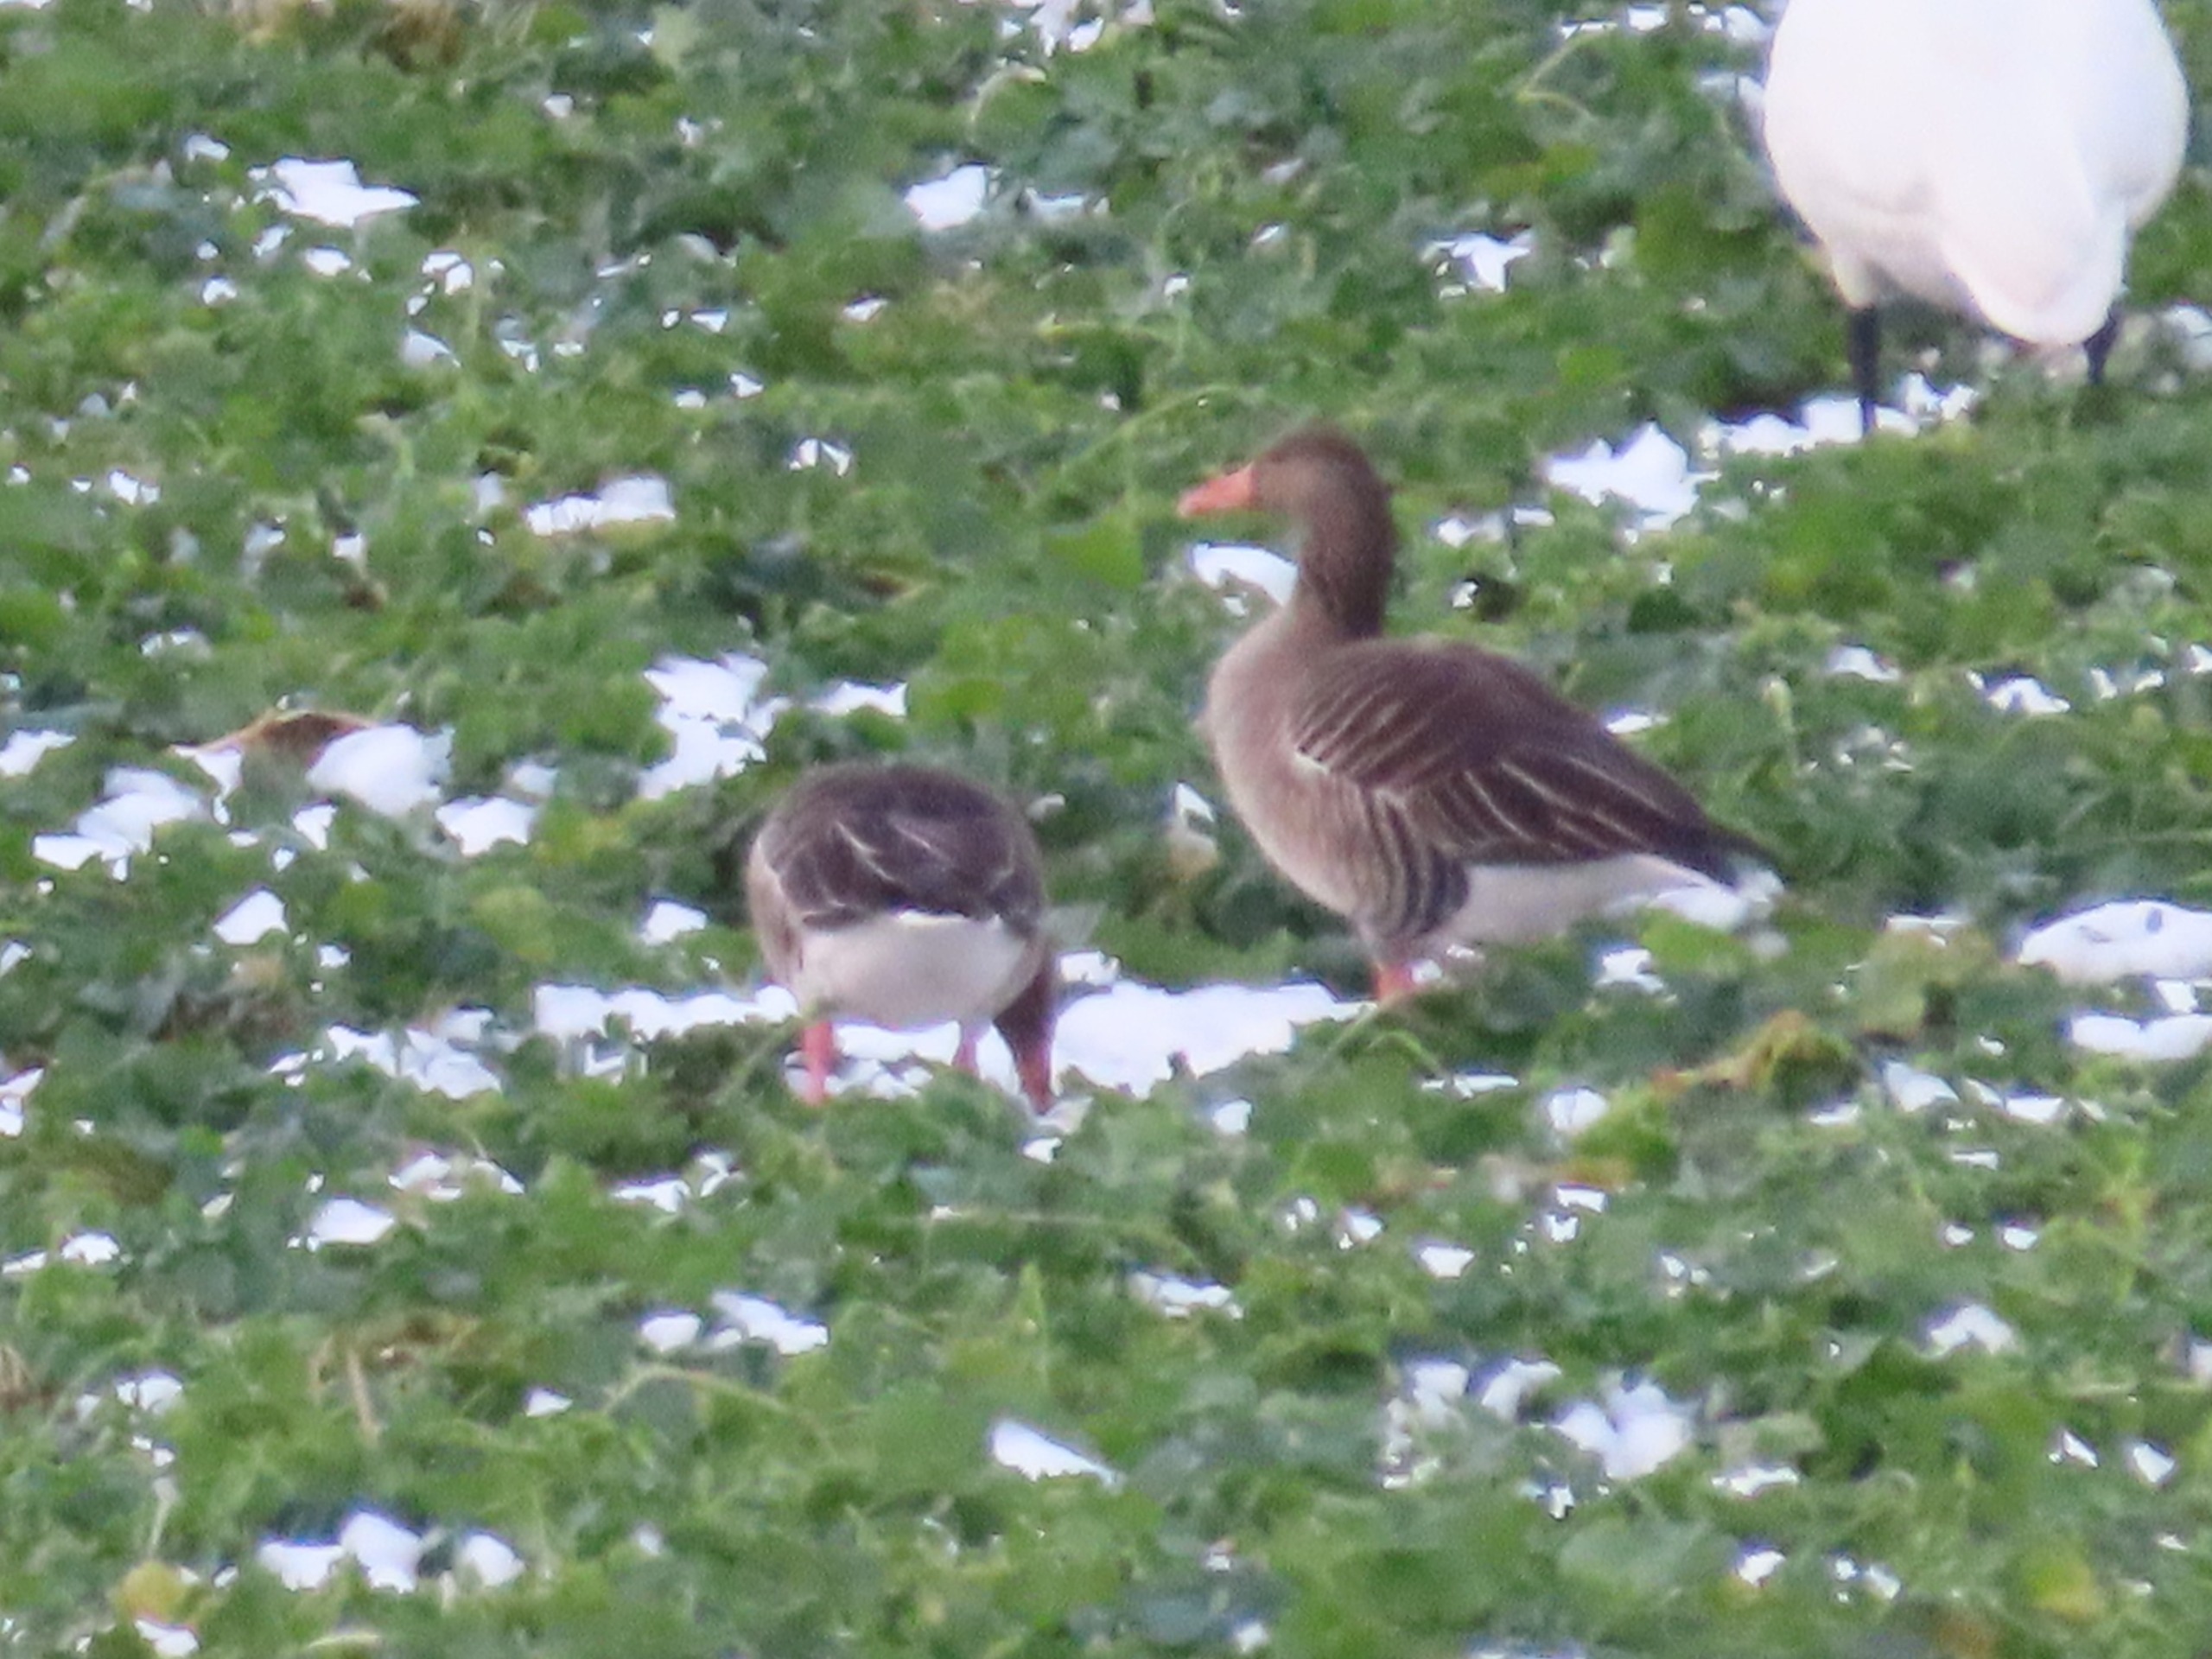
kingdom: Animalia
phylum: Chordata
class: Aves
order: Anseriformes
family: Anatidae
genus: Anser
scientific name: Anser anser
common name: Grågås
